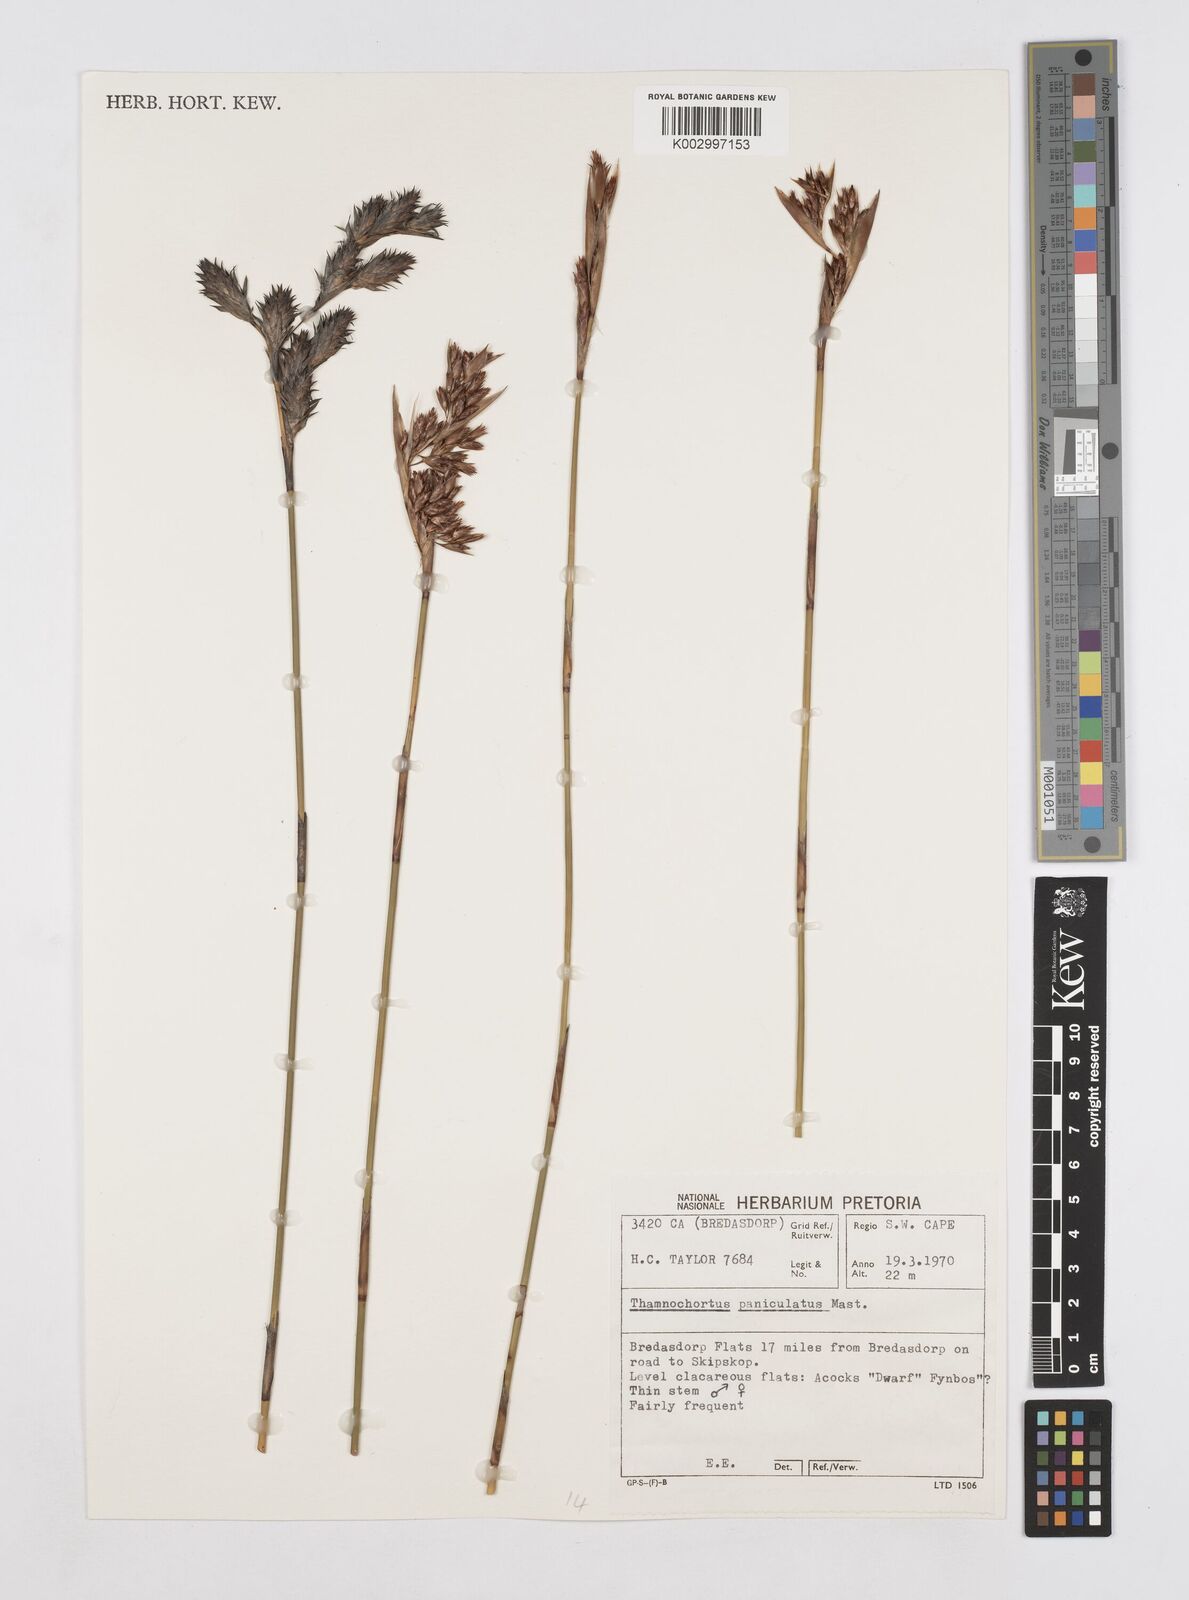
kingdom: Plantae
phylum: Tracheophyta
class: Liliopsida
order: Poales
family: Restionaceae
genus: Thamnochortus
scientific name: Thamnochortus paniculatus
